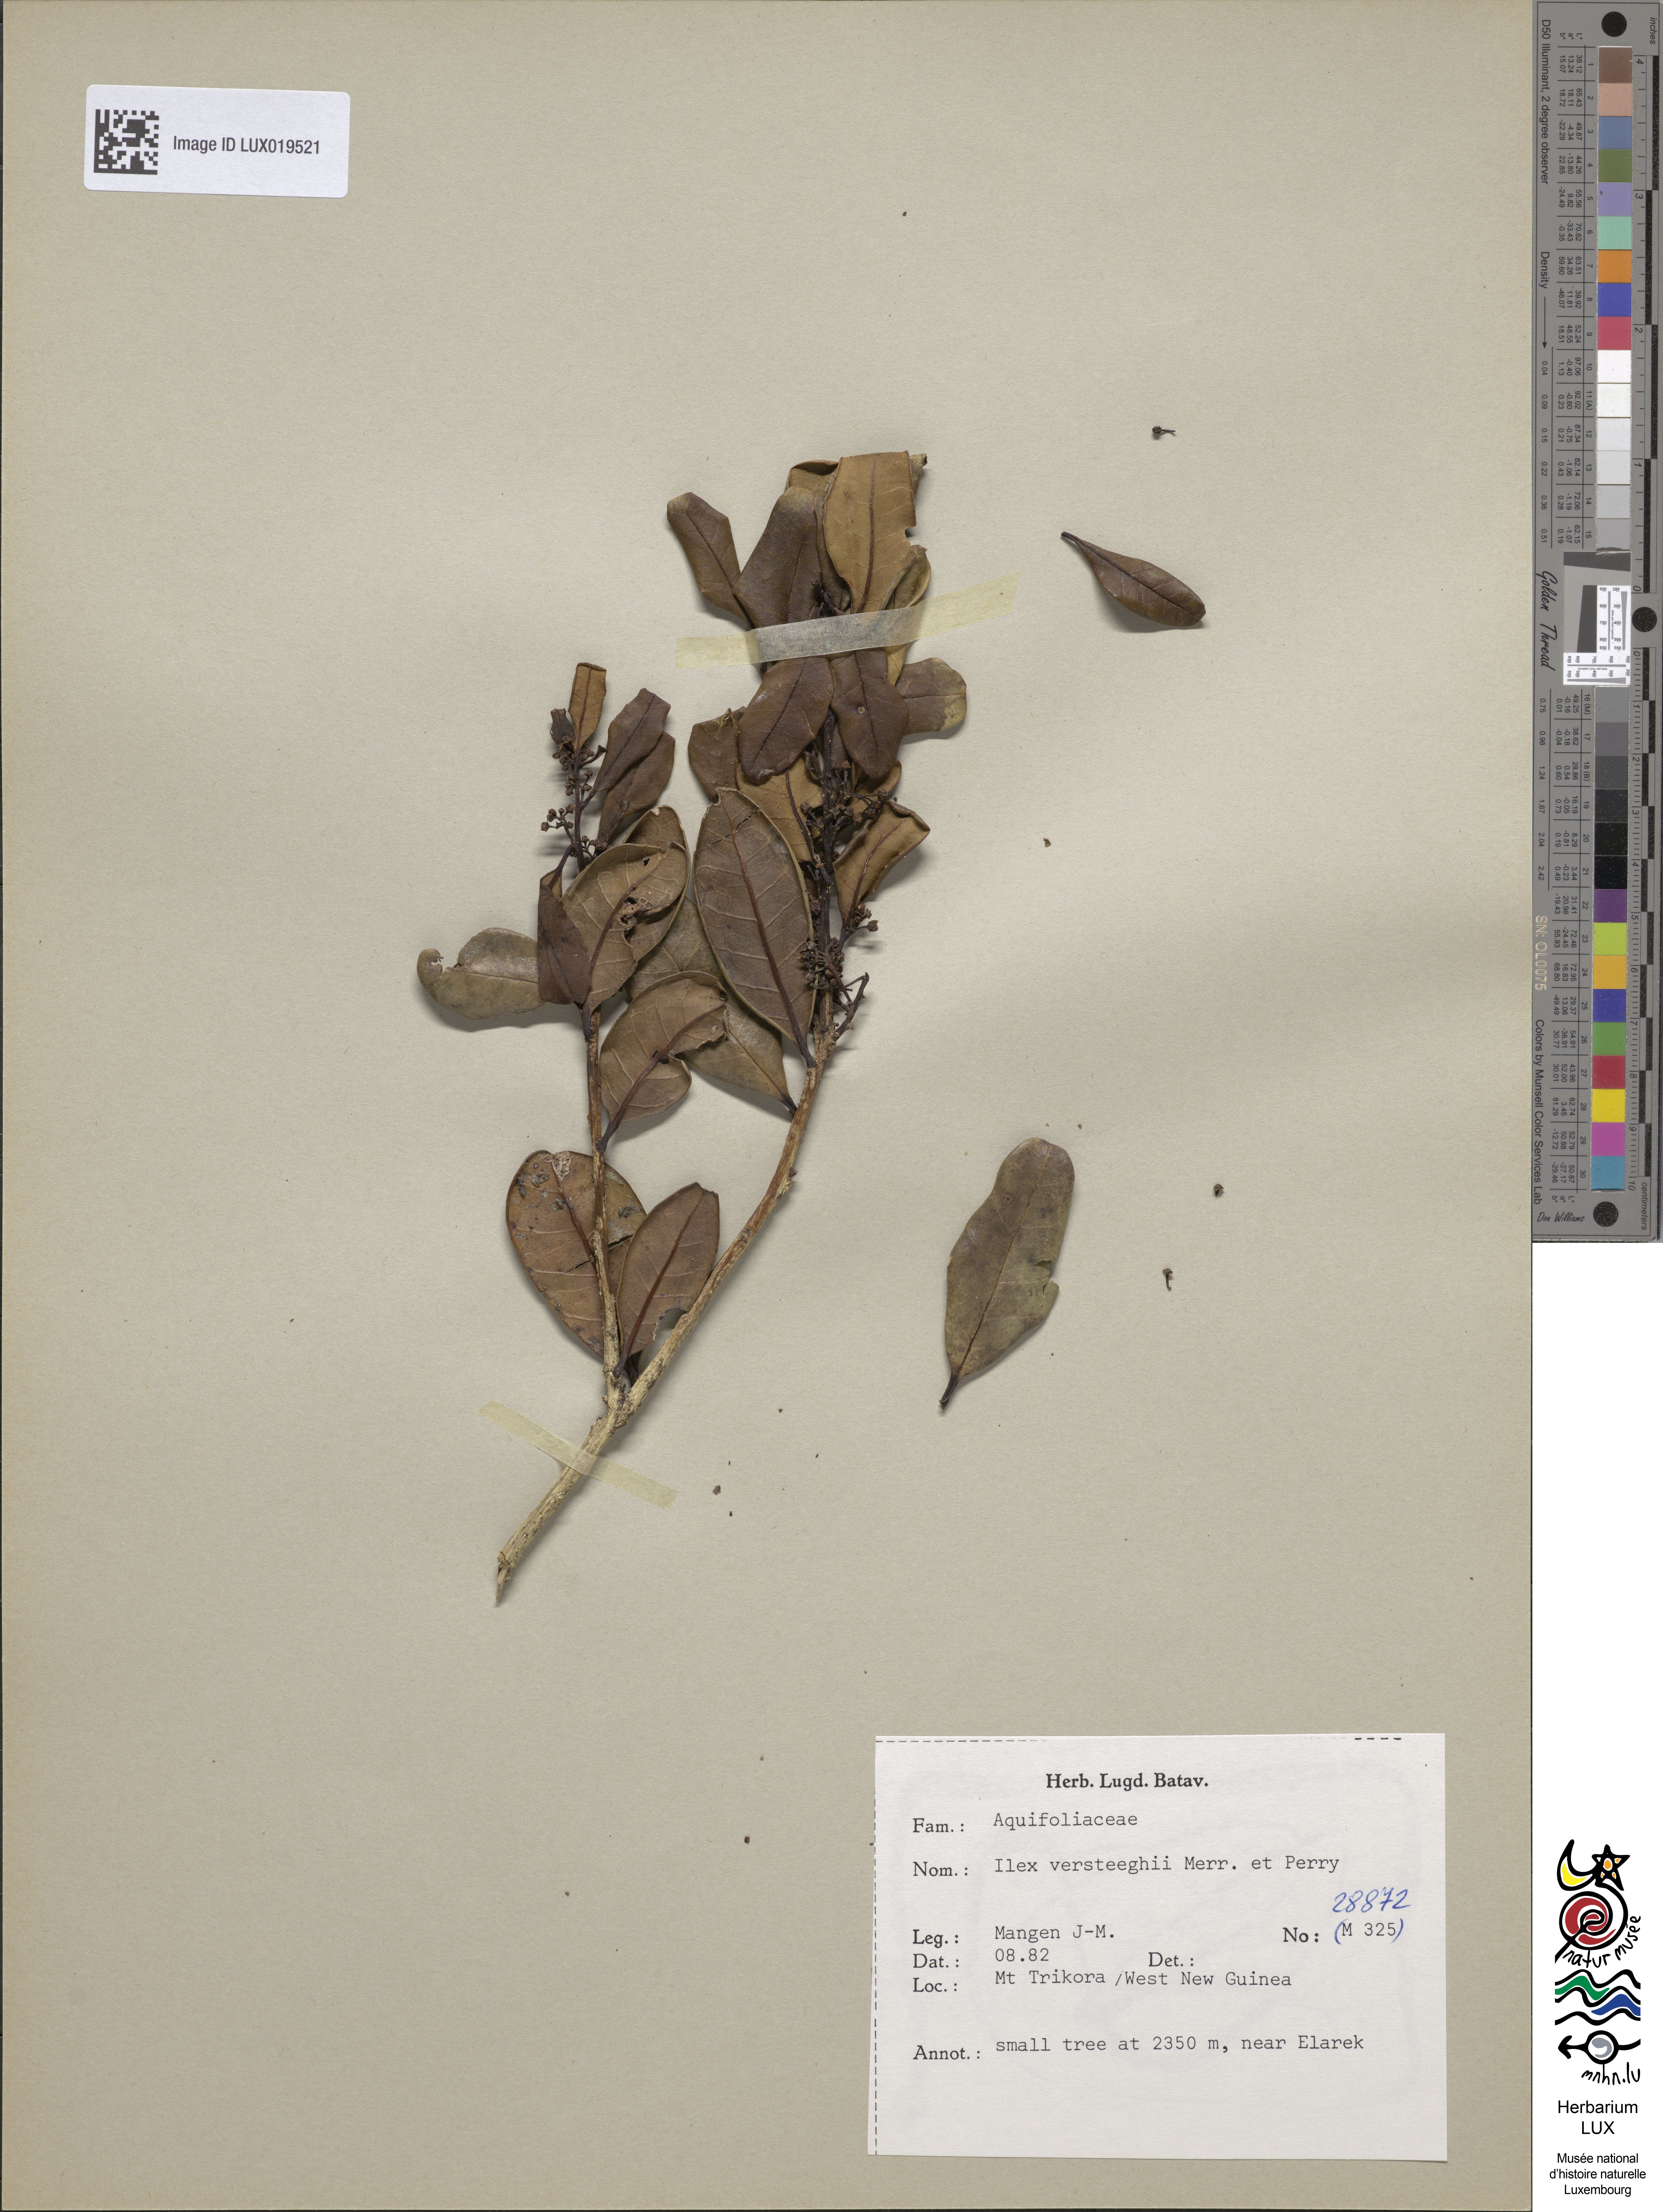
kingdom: Plantae
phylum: Tracheophyta
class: Magnoliopsida
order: Aquifoliales
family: Aquifoliaceae
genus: Ilex
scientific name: Ilex versteeghii
